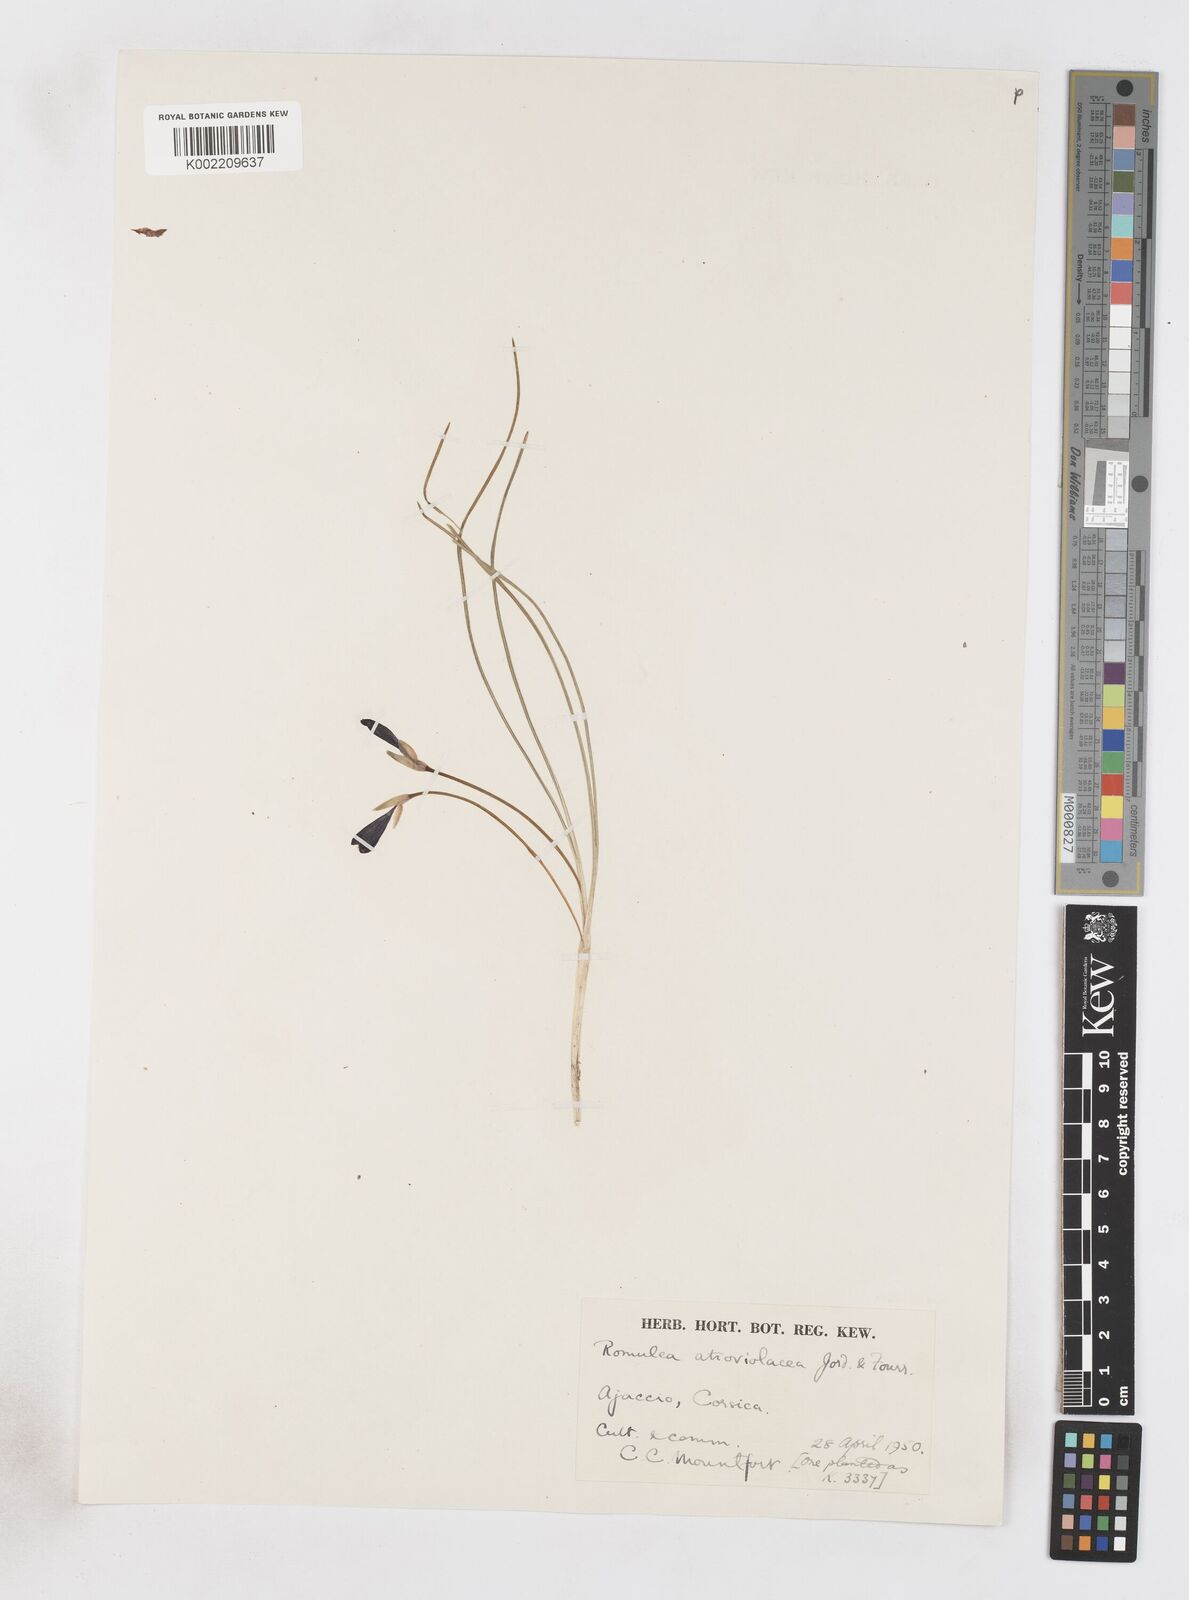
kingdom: Plantae
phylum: Tracheophyta
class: Liliopsida
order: Asparagales
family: Iridaceae
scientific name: Iridaceae
